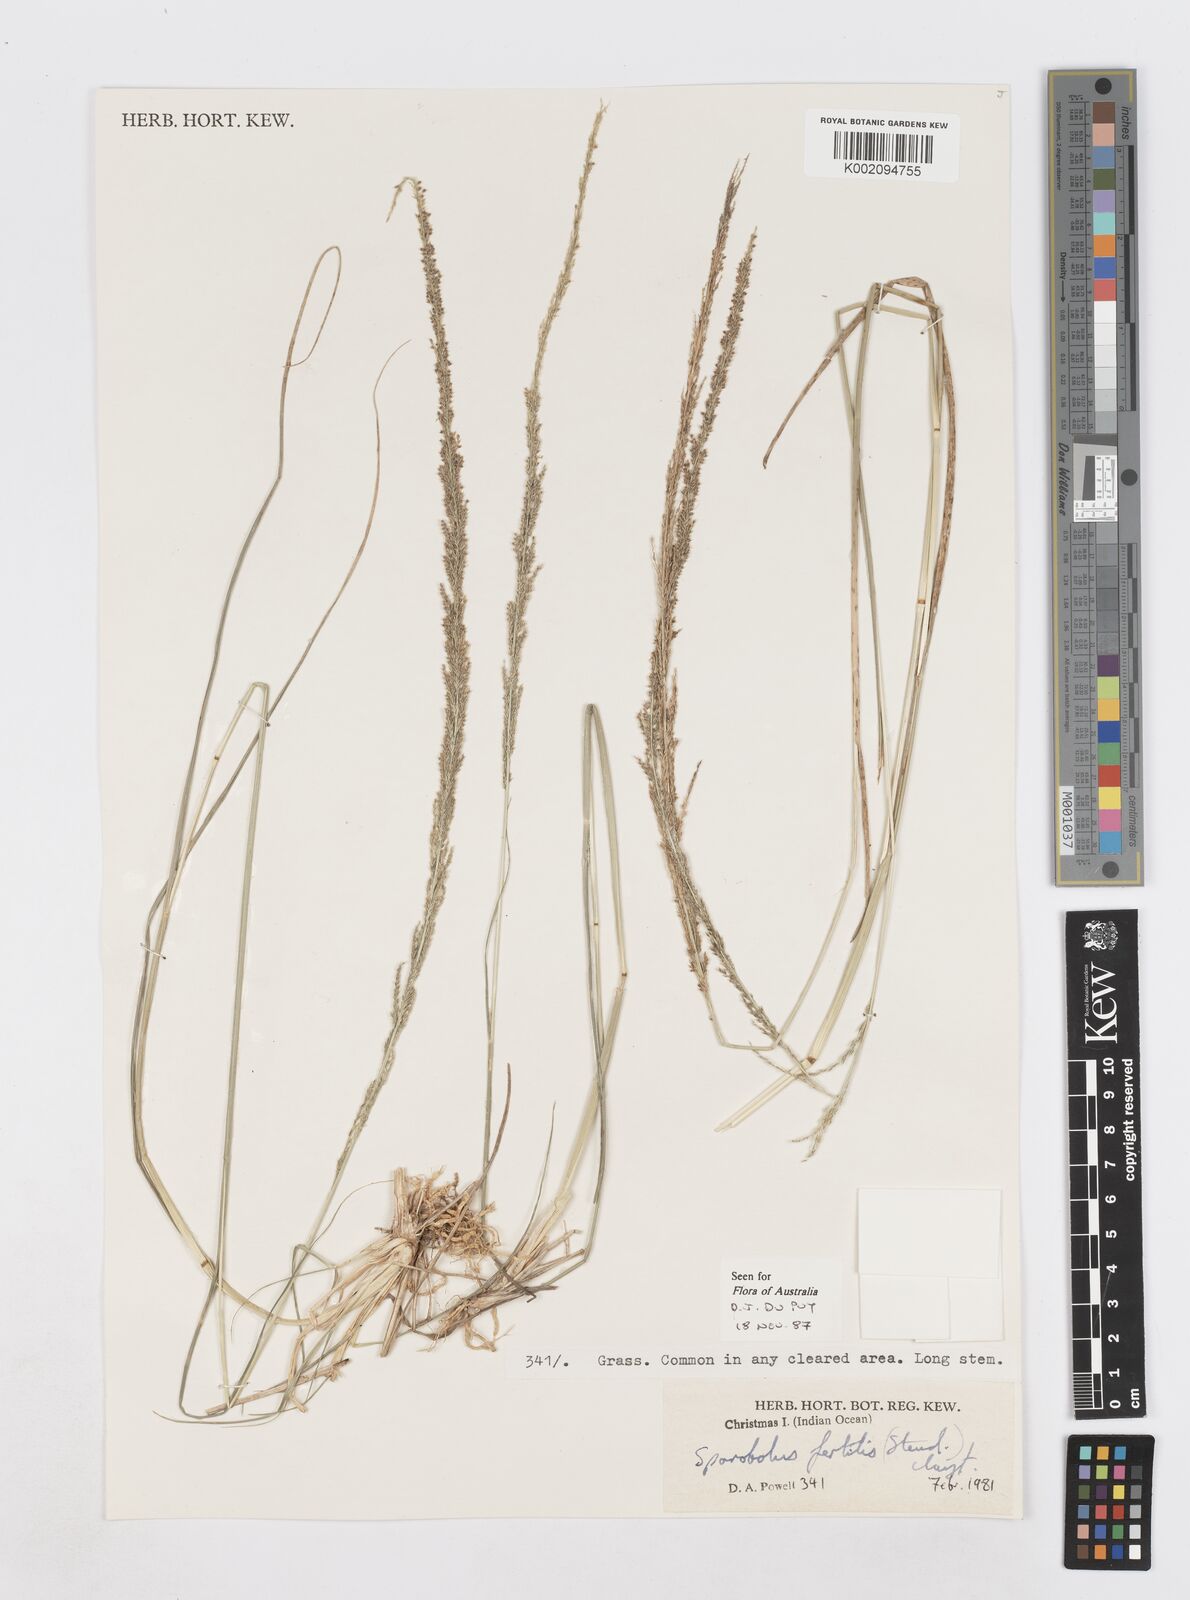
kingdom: Plantae
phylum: Tracheophyta
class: Liliopsida
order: Poales
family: Poaceae
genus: Sporobolus
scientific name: Sporobolus fertilis
